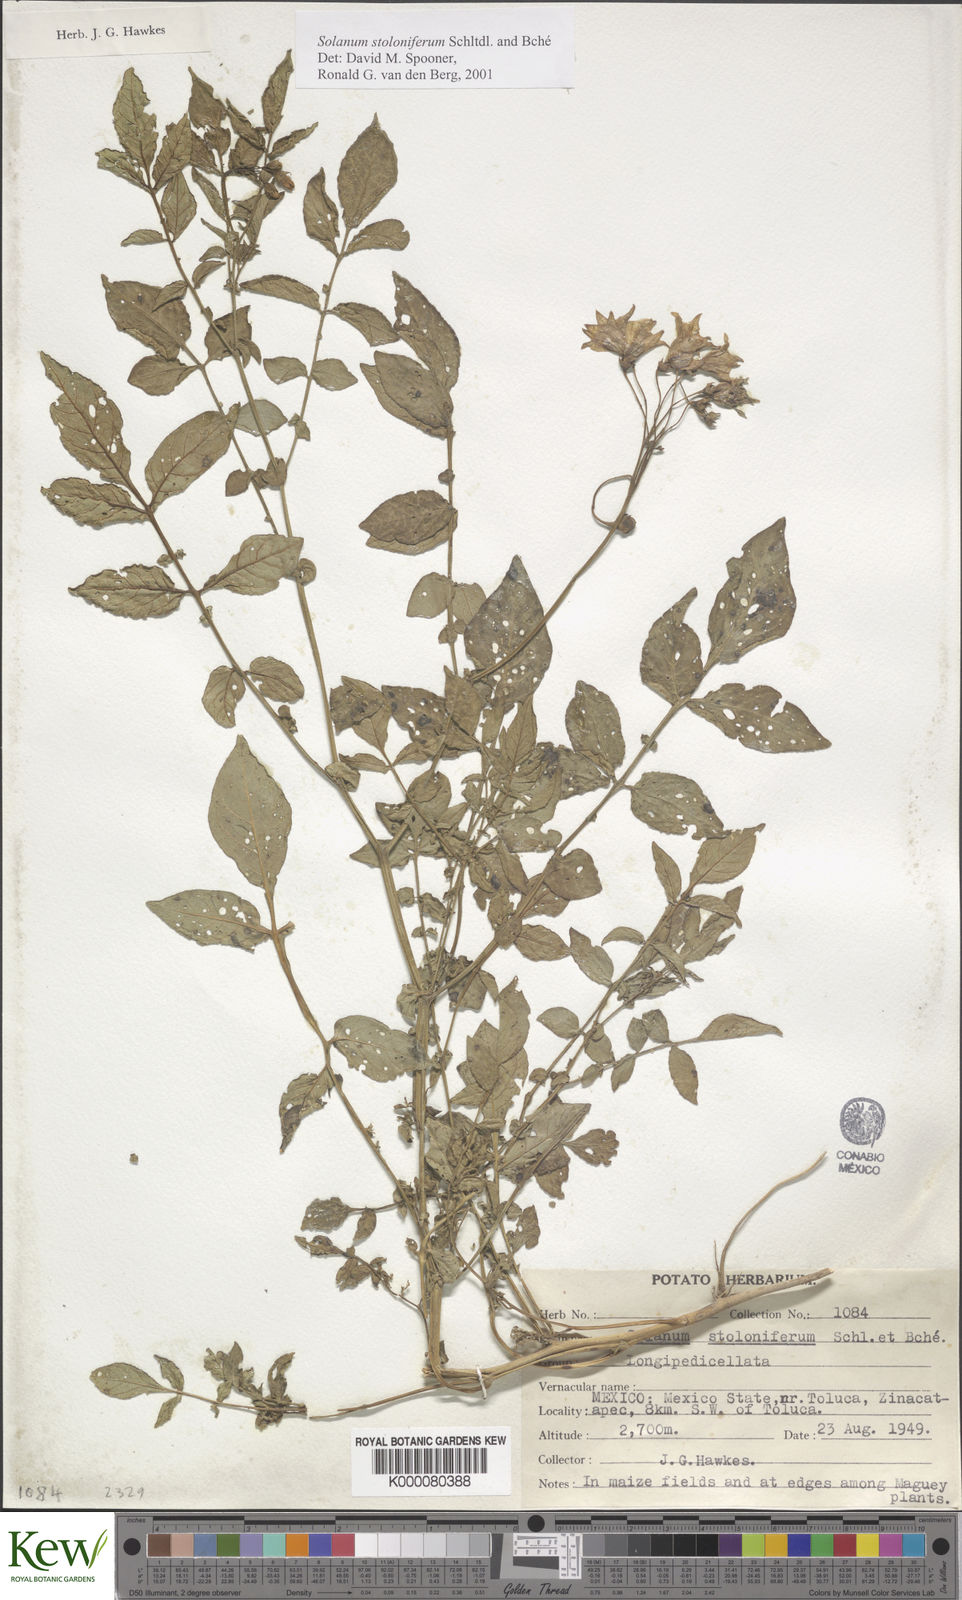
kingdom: Plantae
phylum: Tracheophyta
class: Magnoliopsida
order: Solanales
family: Solanaceae
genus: Solanum
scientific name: Solanum stoloniferum
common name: Fendler's nighshade
